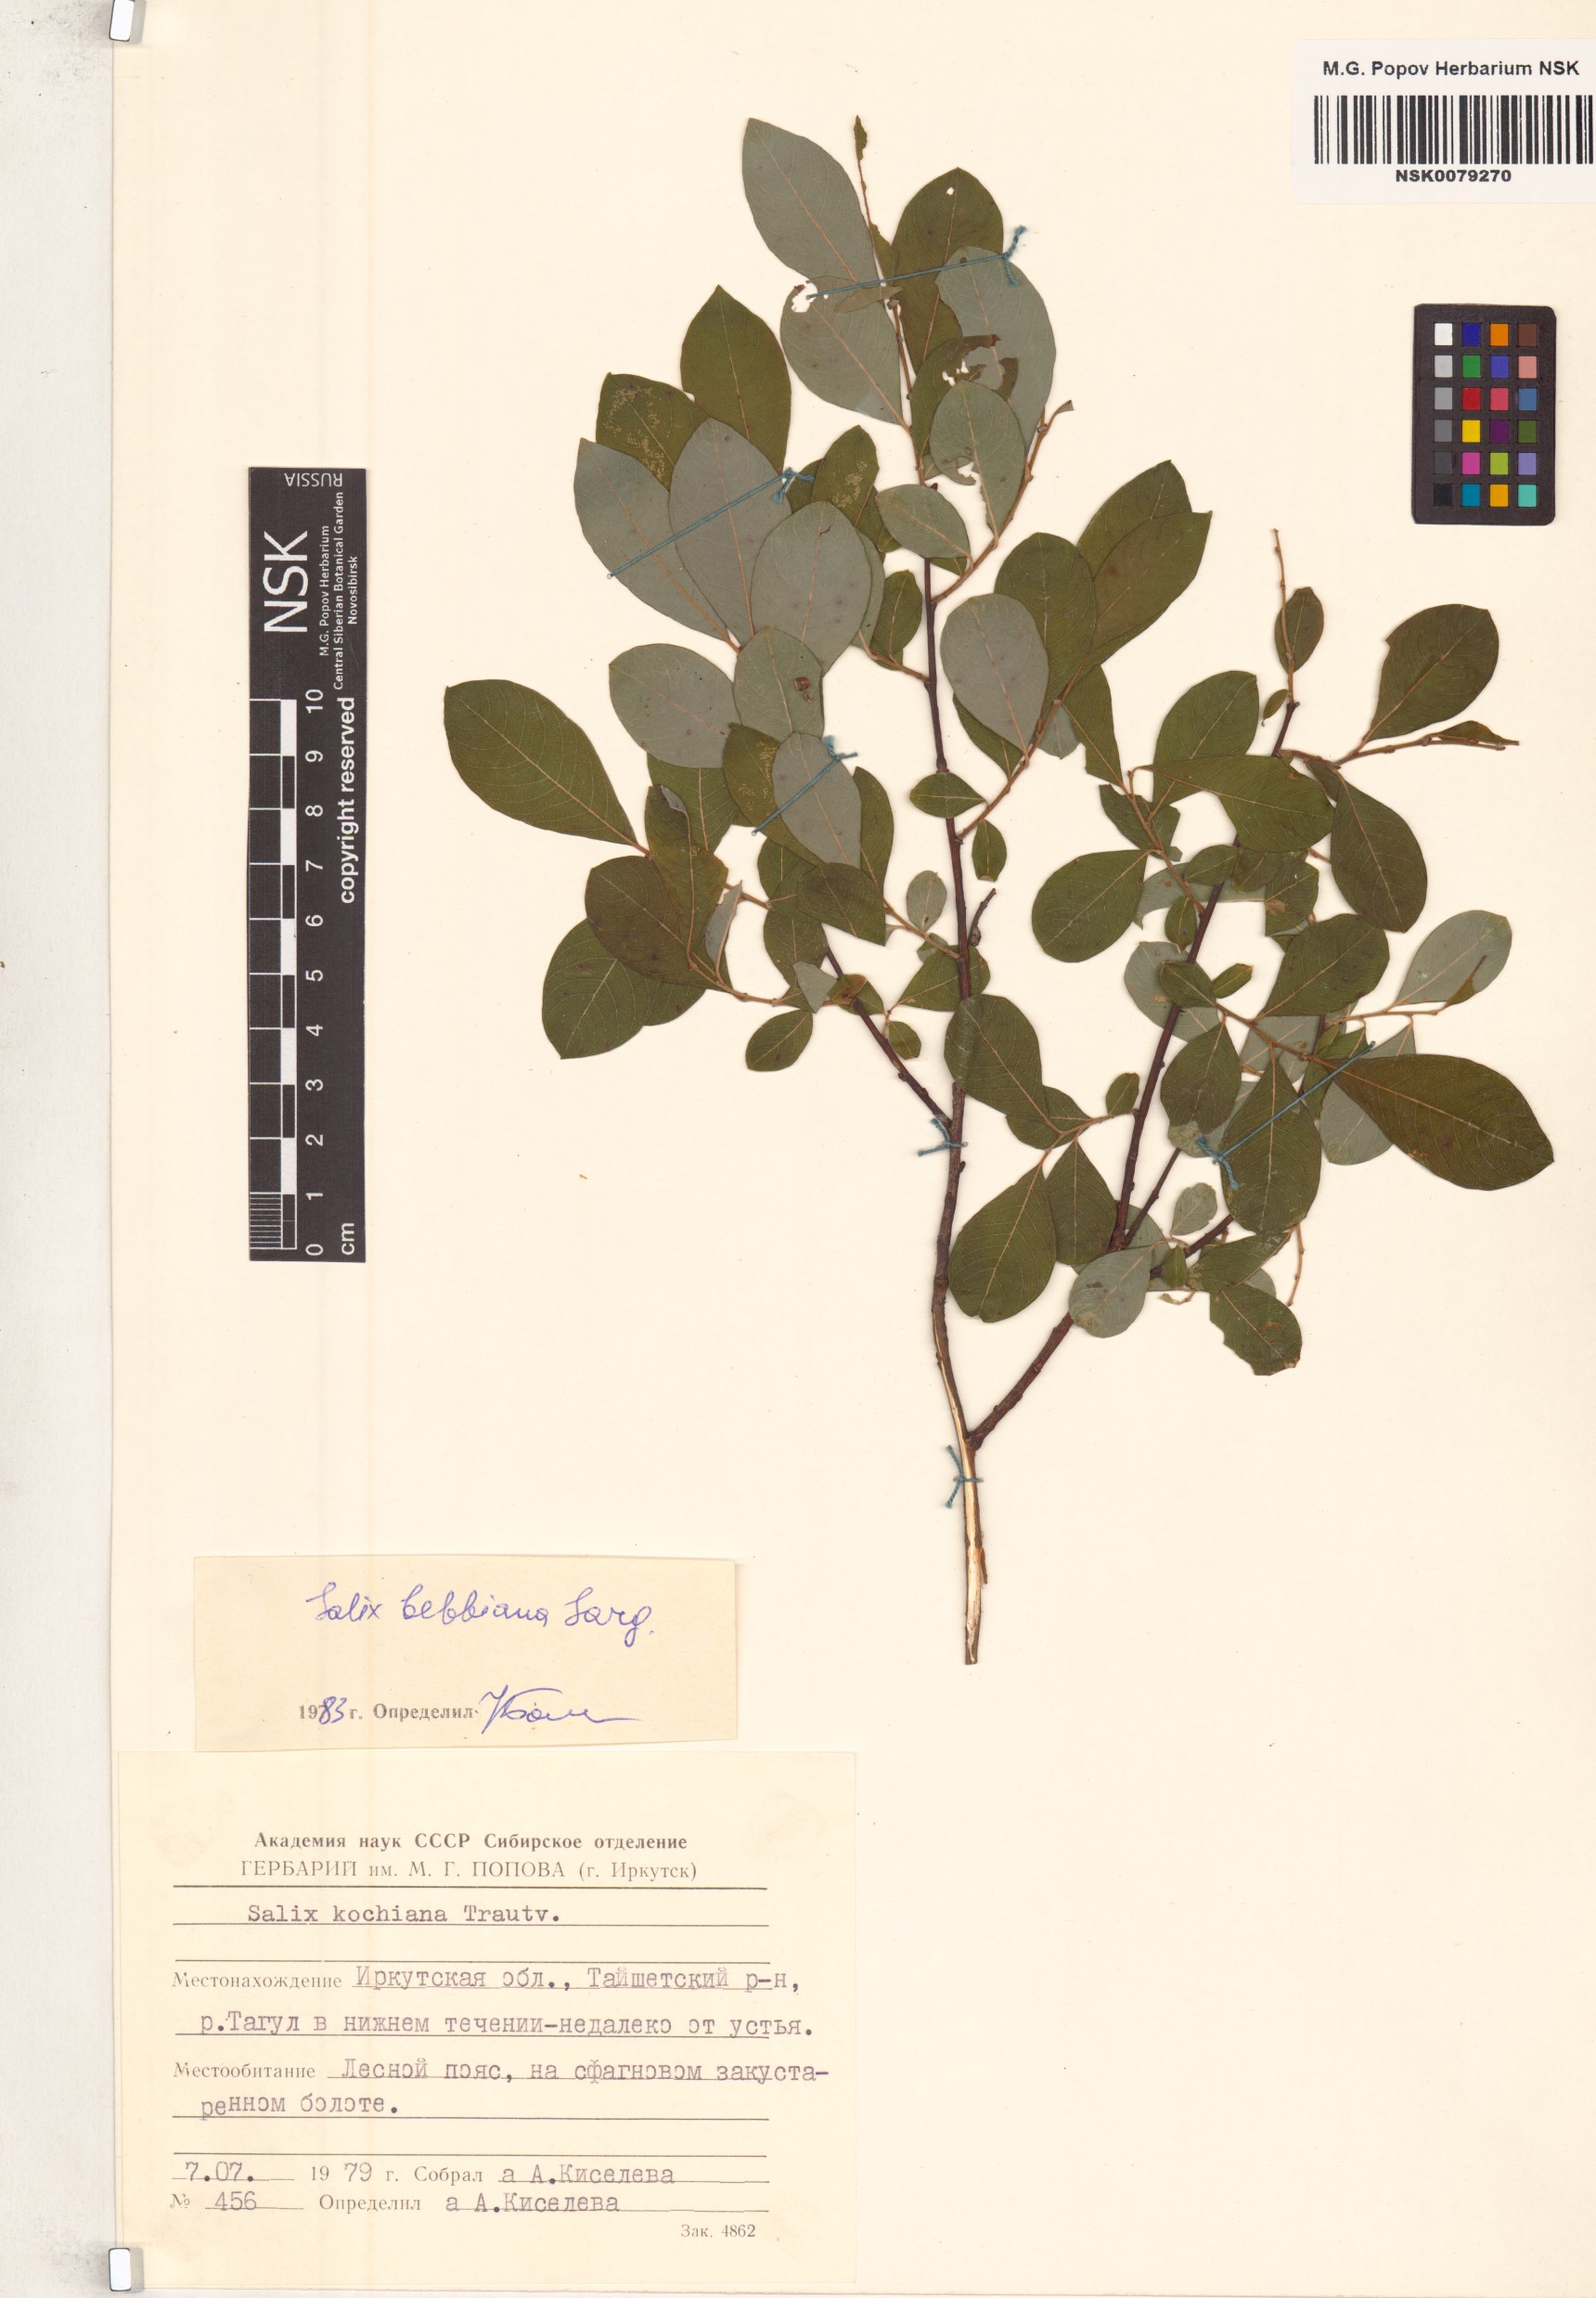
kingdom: Plantae
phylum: Tracheophyta
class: Magnoliopsida
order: Malpighiales
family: Salicaceae
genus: Salix
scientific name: Salix bebbiana
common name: Bebb's willow
